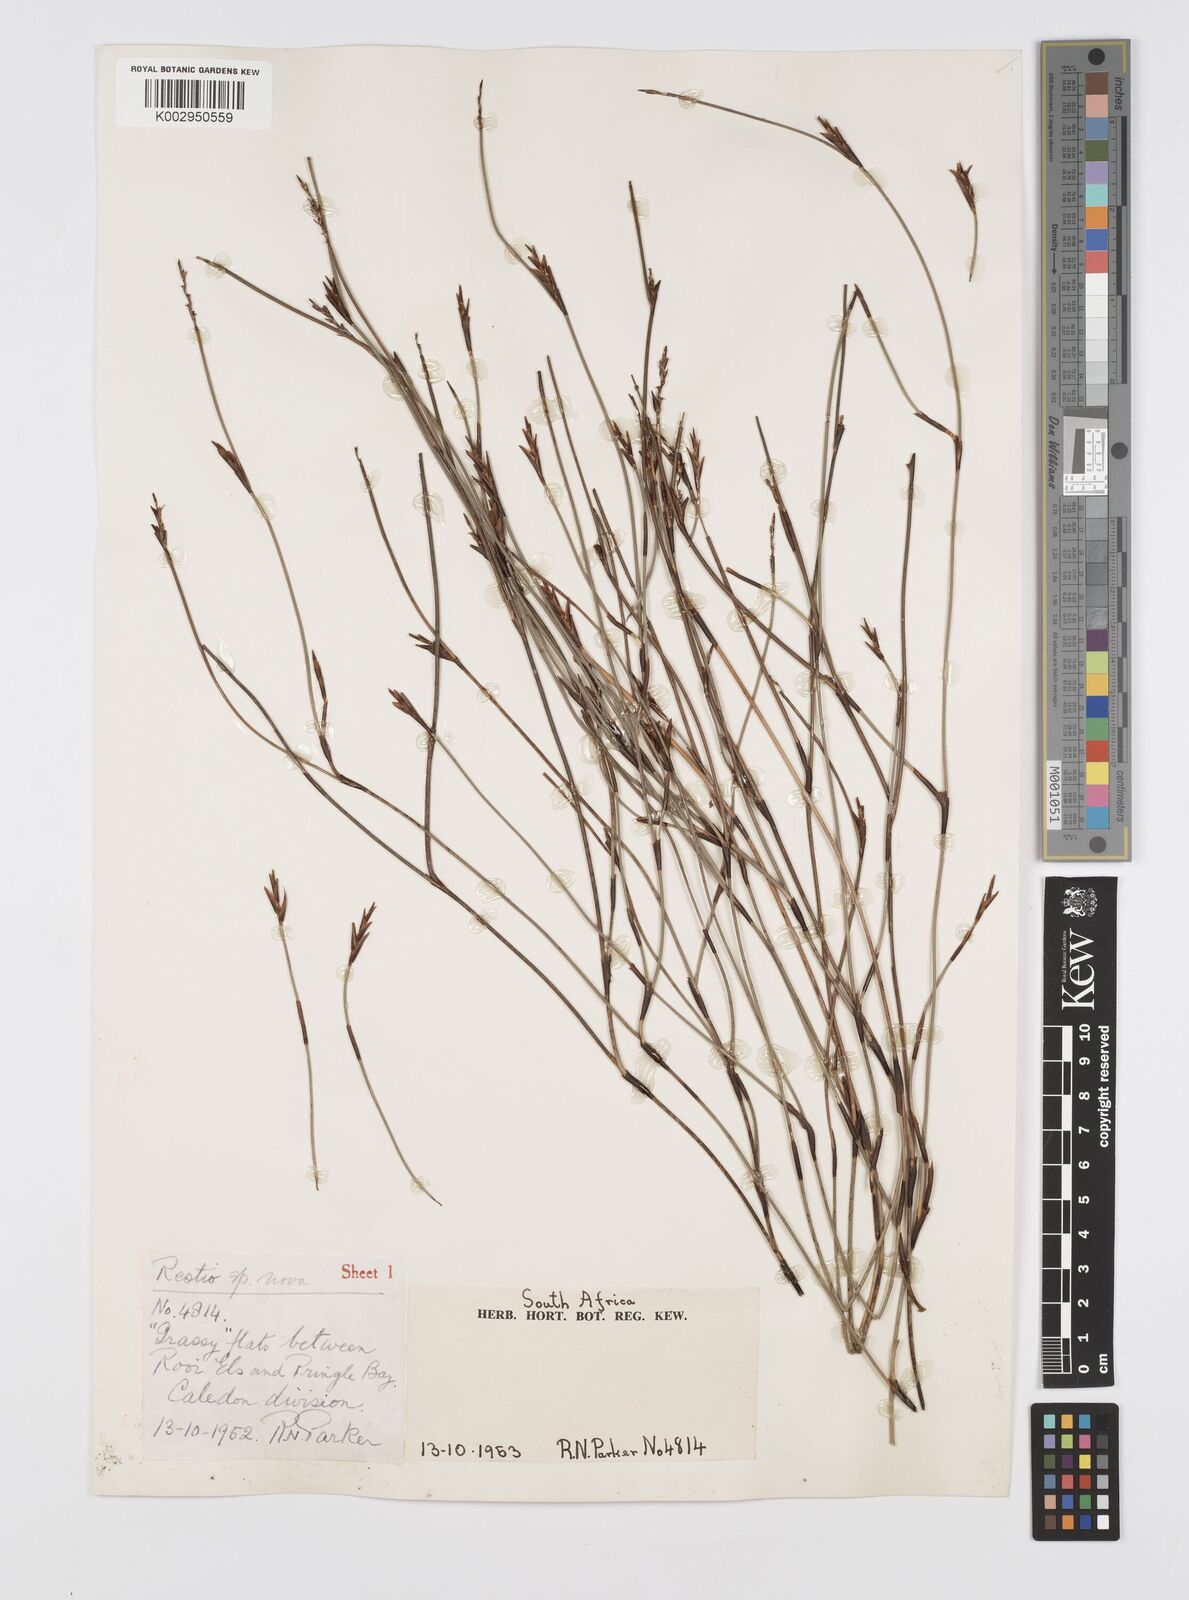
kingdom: Plantae
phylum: Tracheophyta
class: Liliopsida
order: Poales
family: Restionaceae
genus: Soroveta
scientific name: Soroveta ambigua
